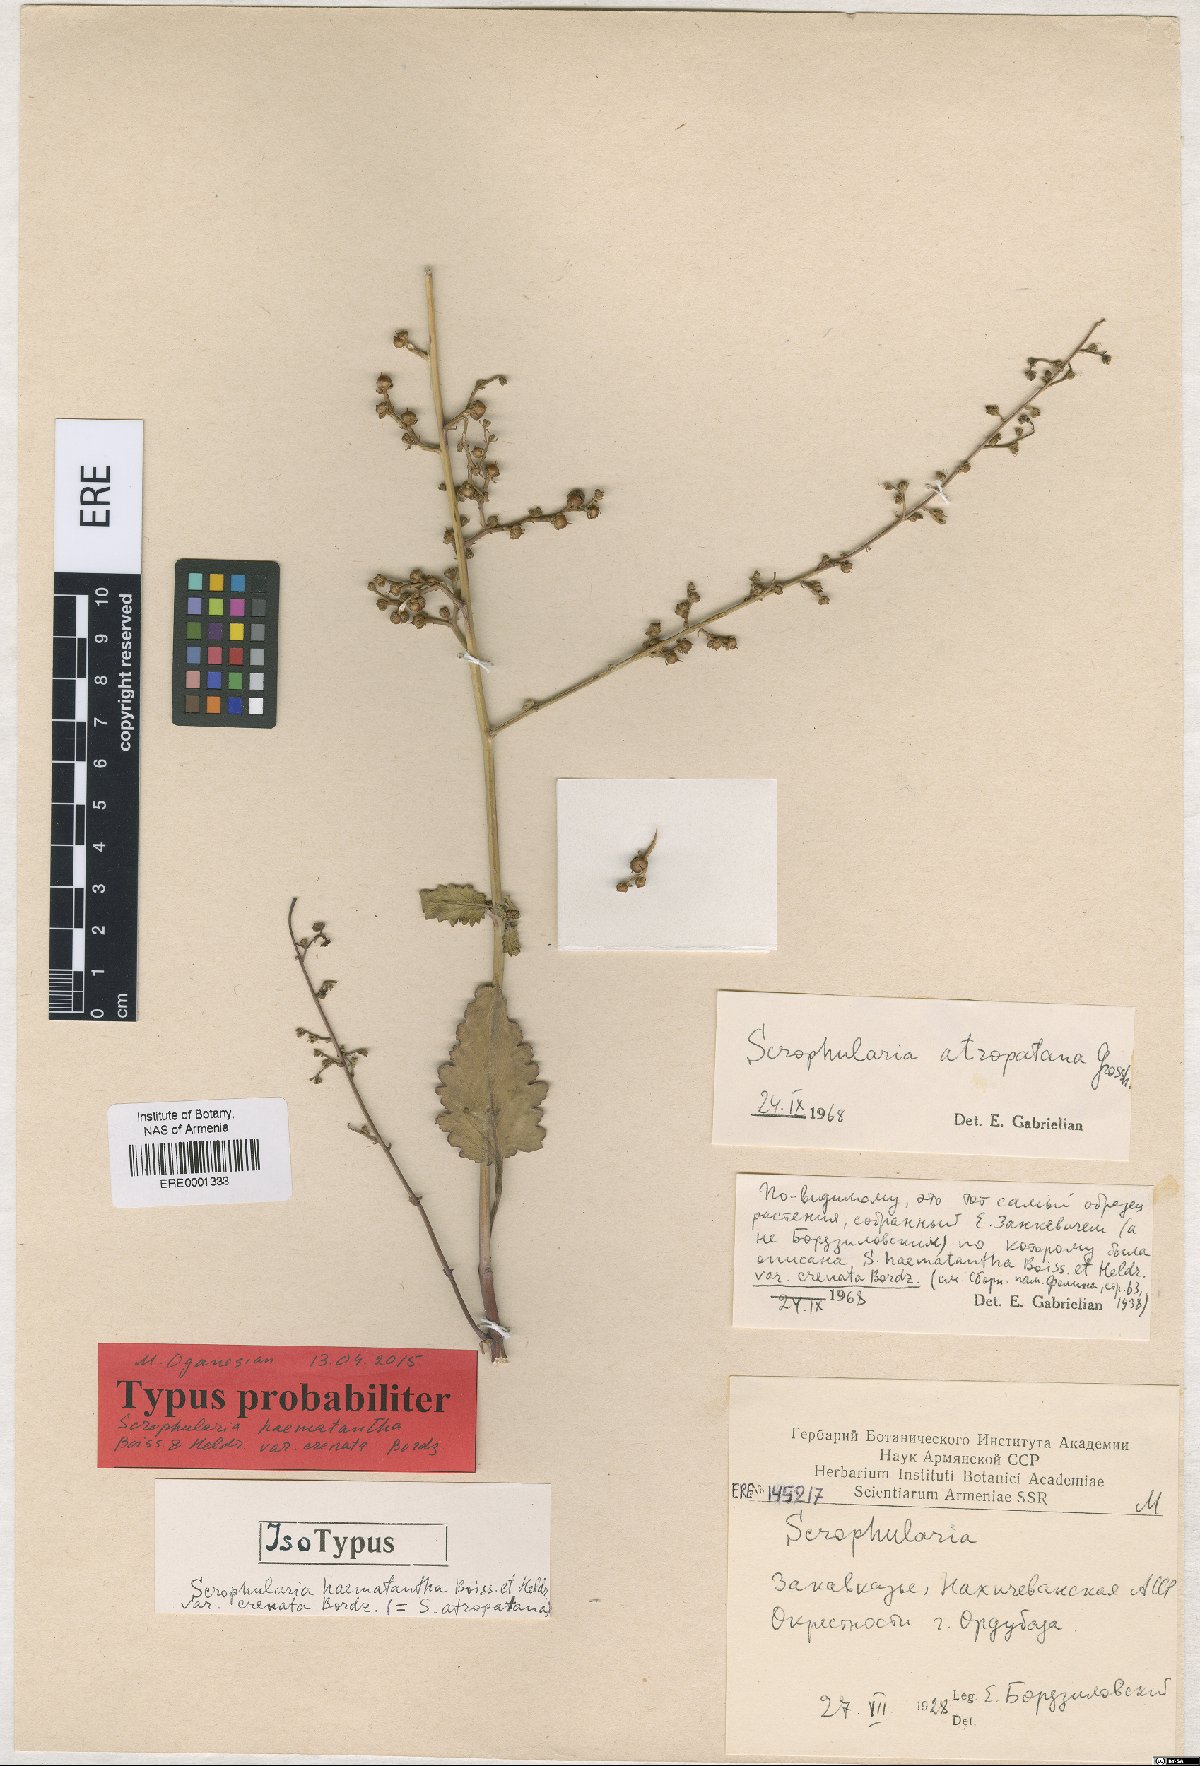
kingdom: Plantae
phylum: Tracheophyta
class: Magnoliopsida
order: Lamiales
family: Scrophulariaceae
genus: Scrophularia
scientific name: Scrophularia haematantha
